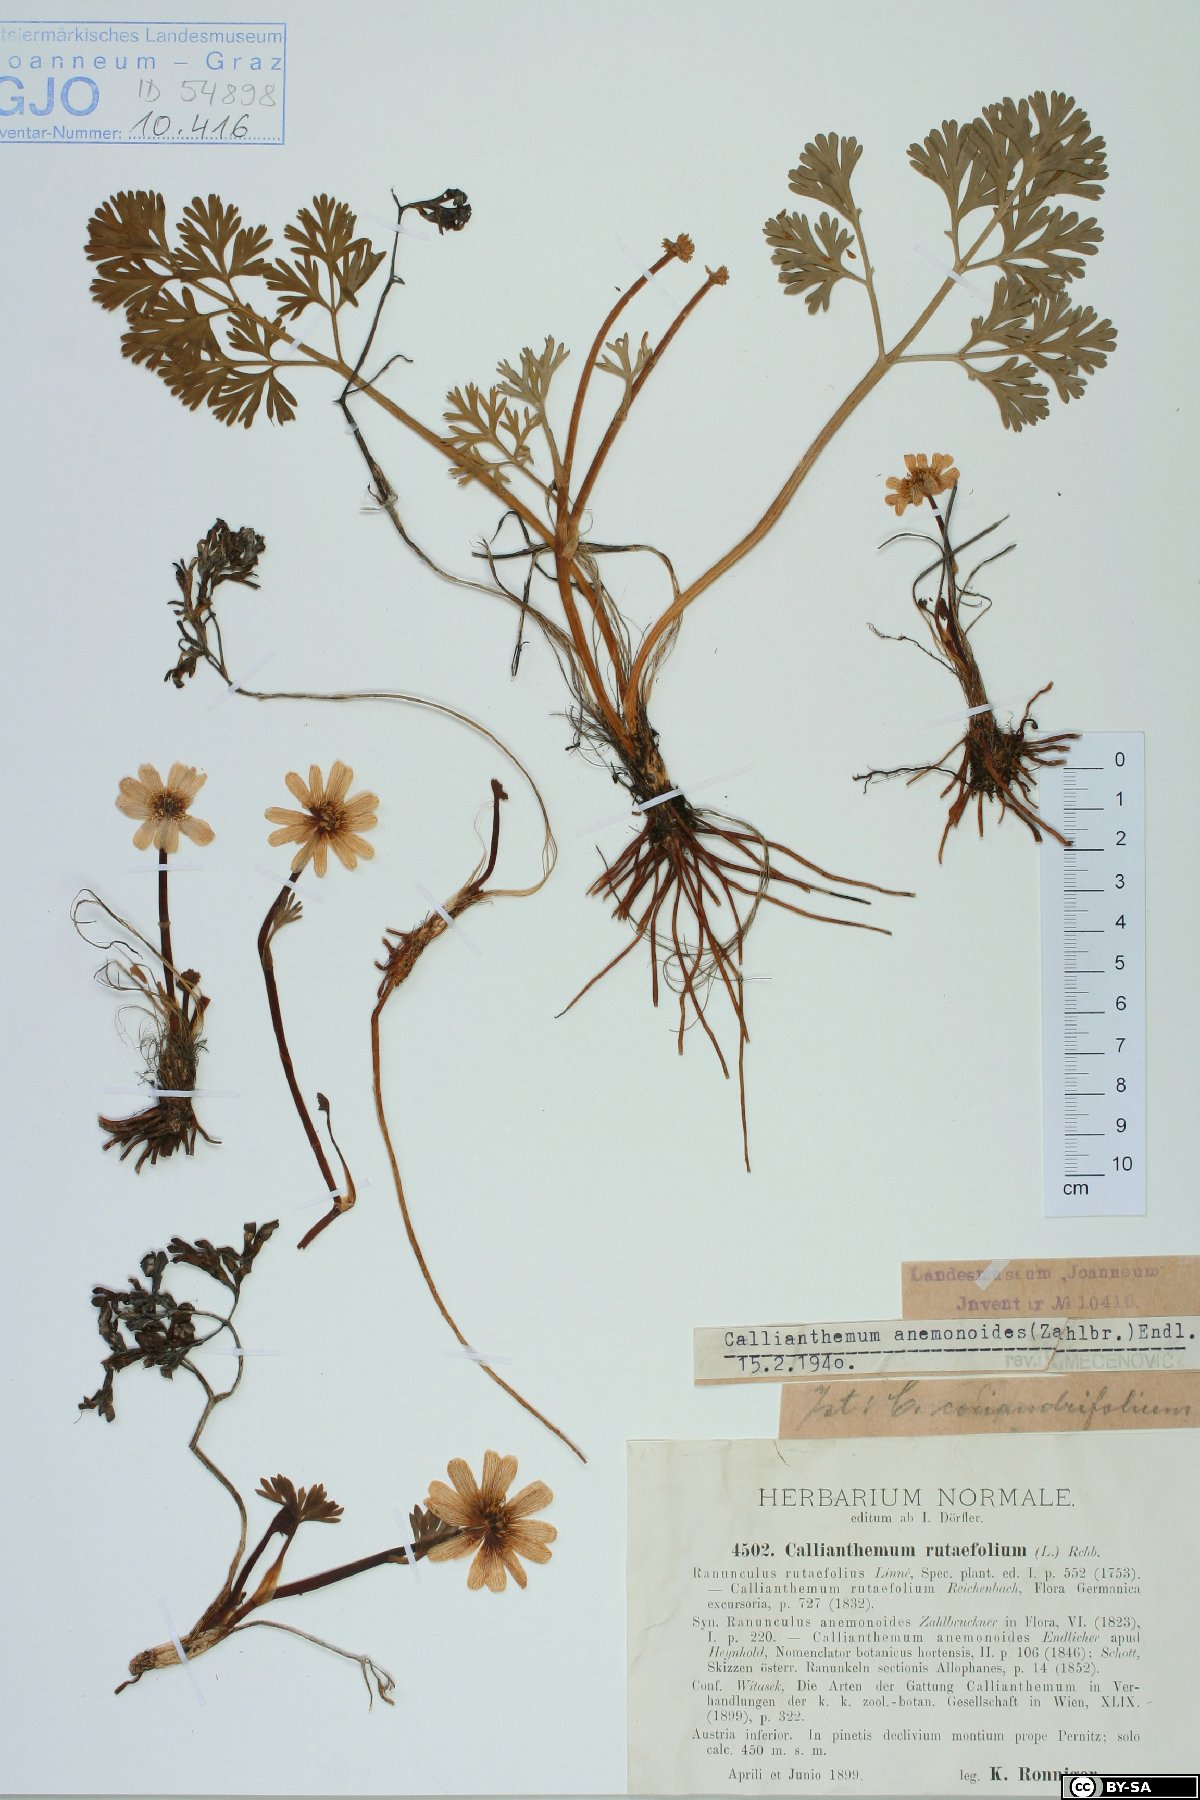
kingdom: Plantae
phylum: Tracheophyta
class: Magnoliopsida
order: Ranunculales
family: Ranunculaceae
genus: Callianthemum
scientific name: Callianthemum anemonoides
